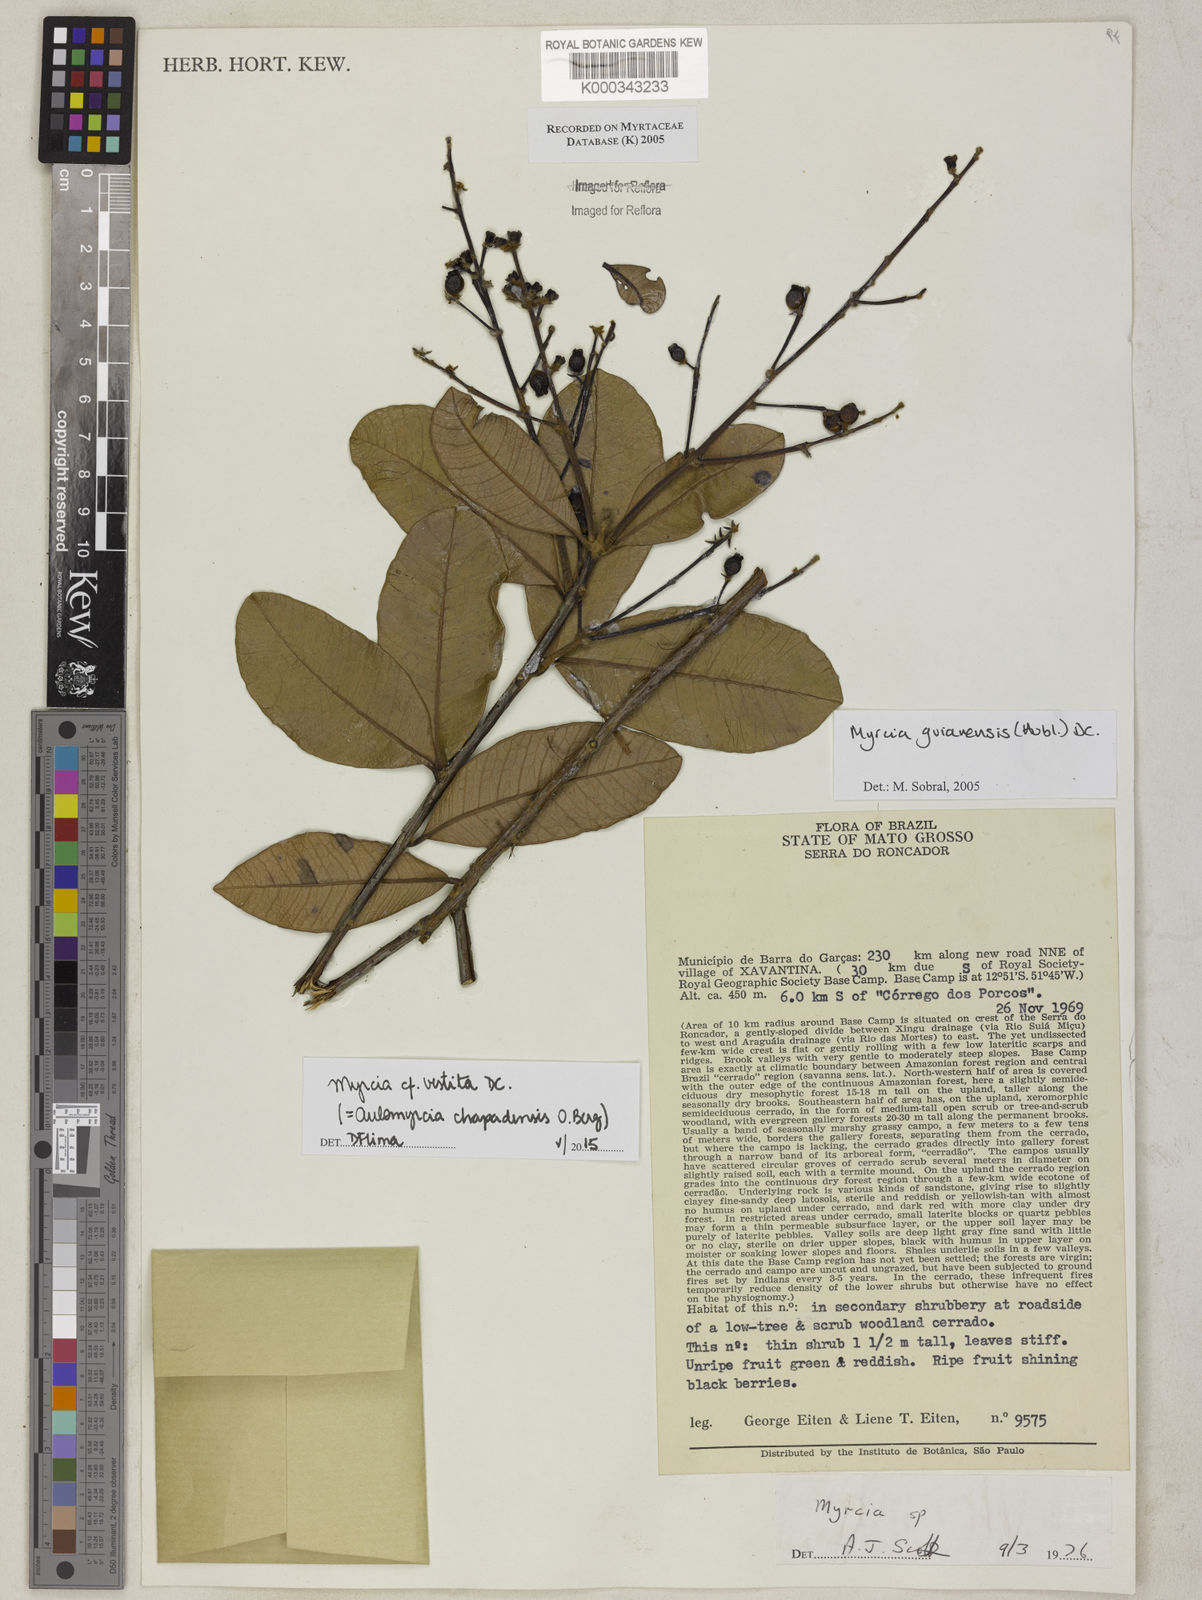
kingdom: Plantae
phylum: Tracheophyta
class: Magnoliopsida
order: Myrtales
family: Myrtaceae
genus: Myrcia
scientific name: Myrcia
